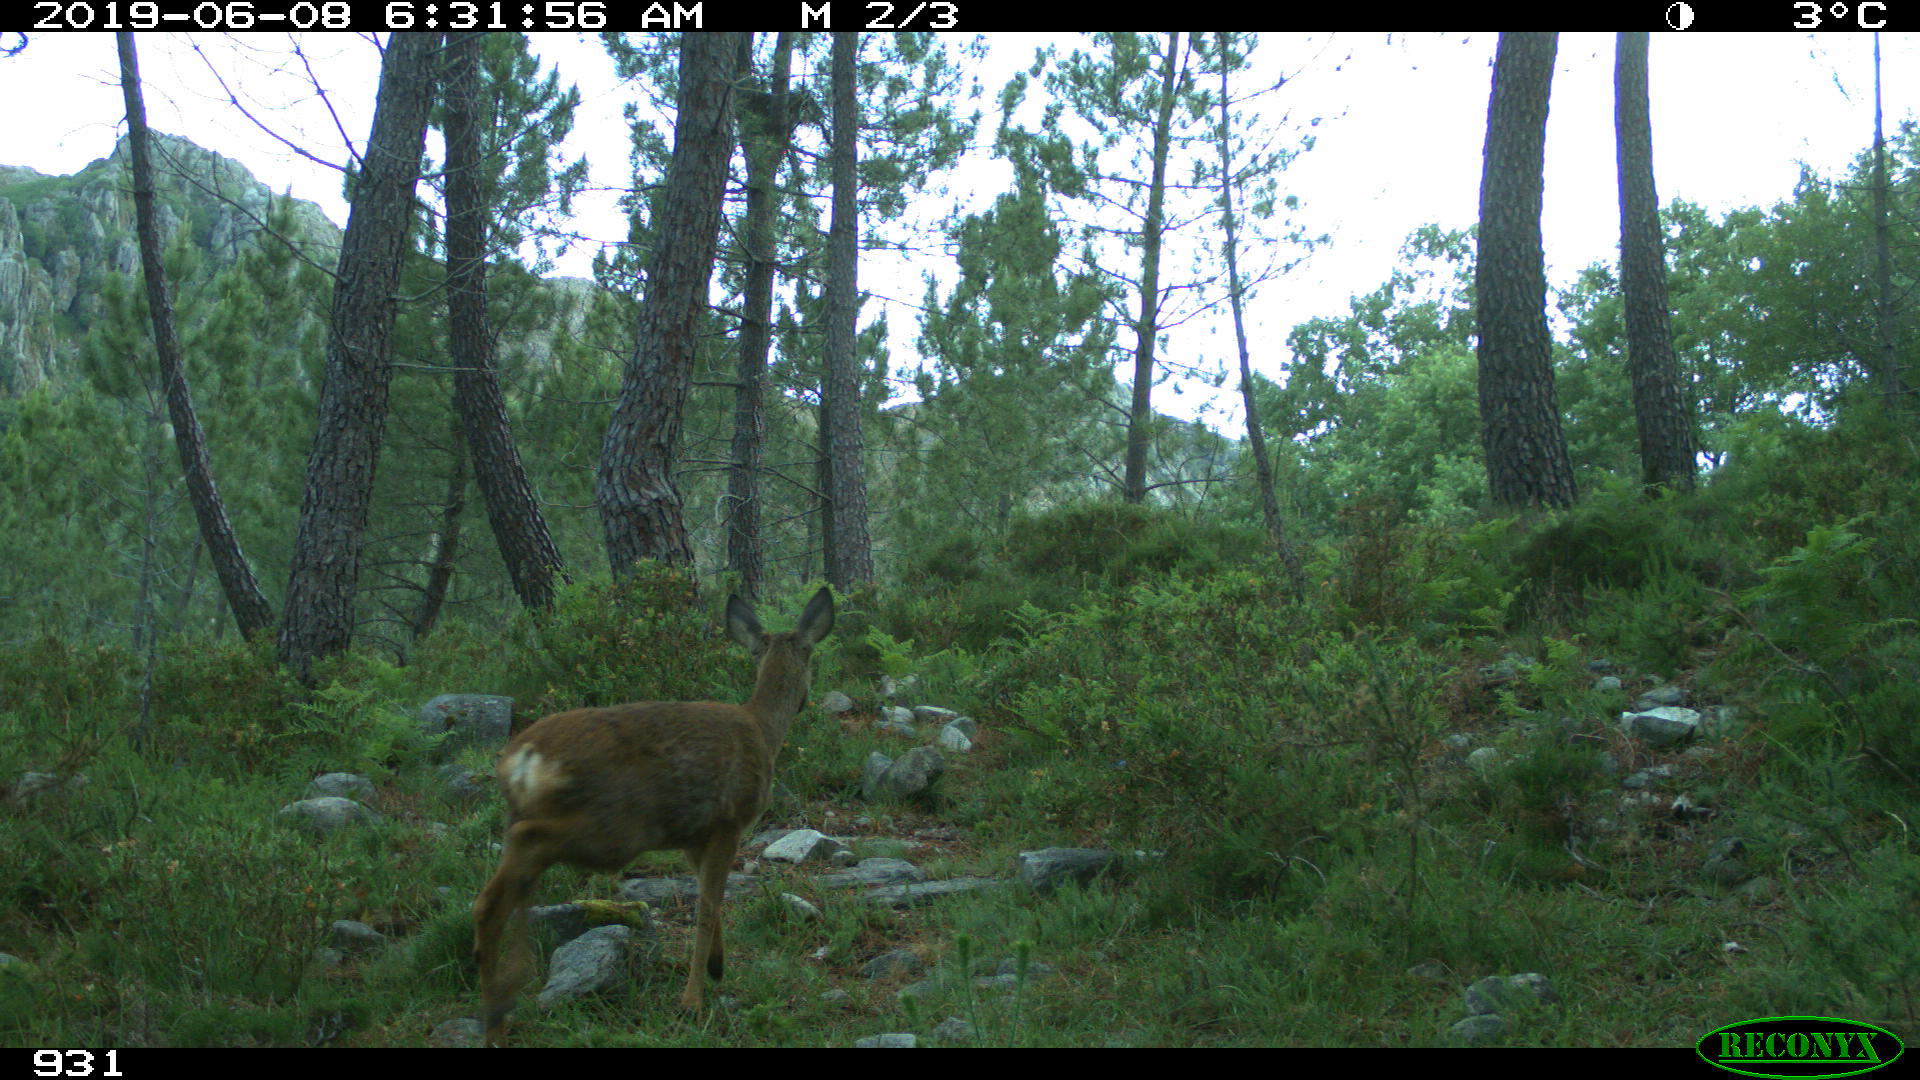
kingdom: Animalia
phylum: Chordata
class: Mammalia
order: Artiodactyla
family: Cervidae
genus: Capreolus
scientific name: Capreolus capreolus
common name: Western roe deer
